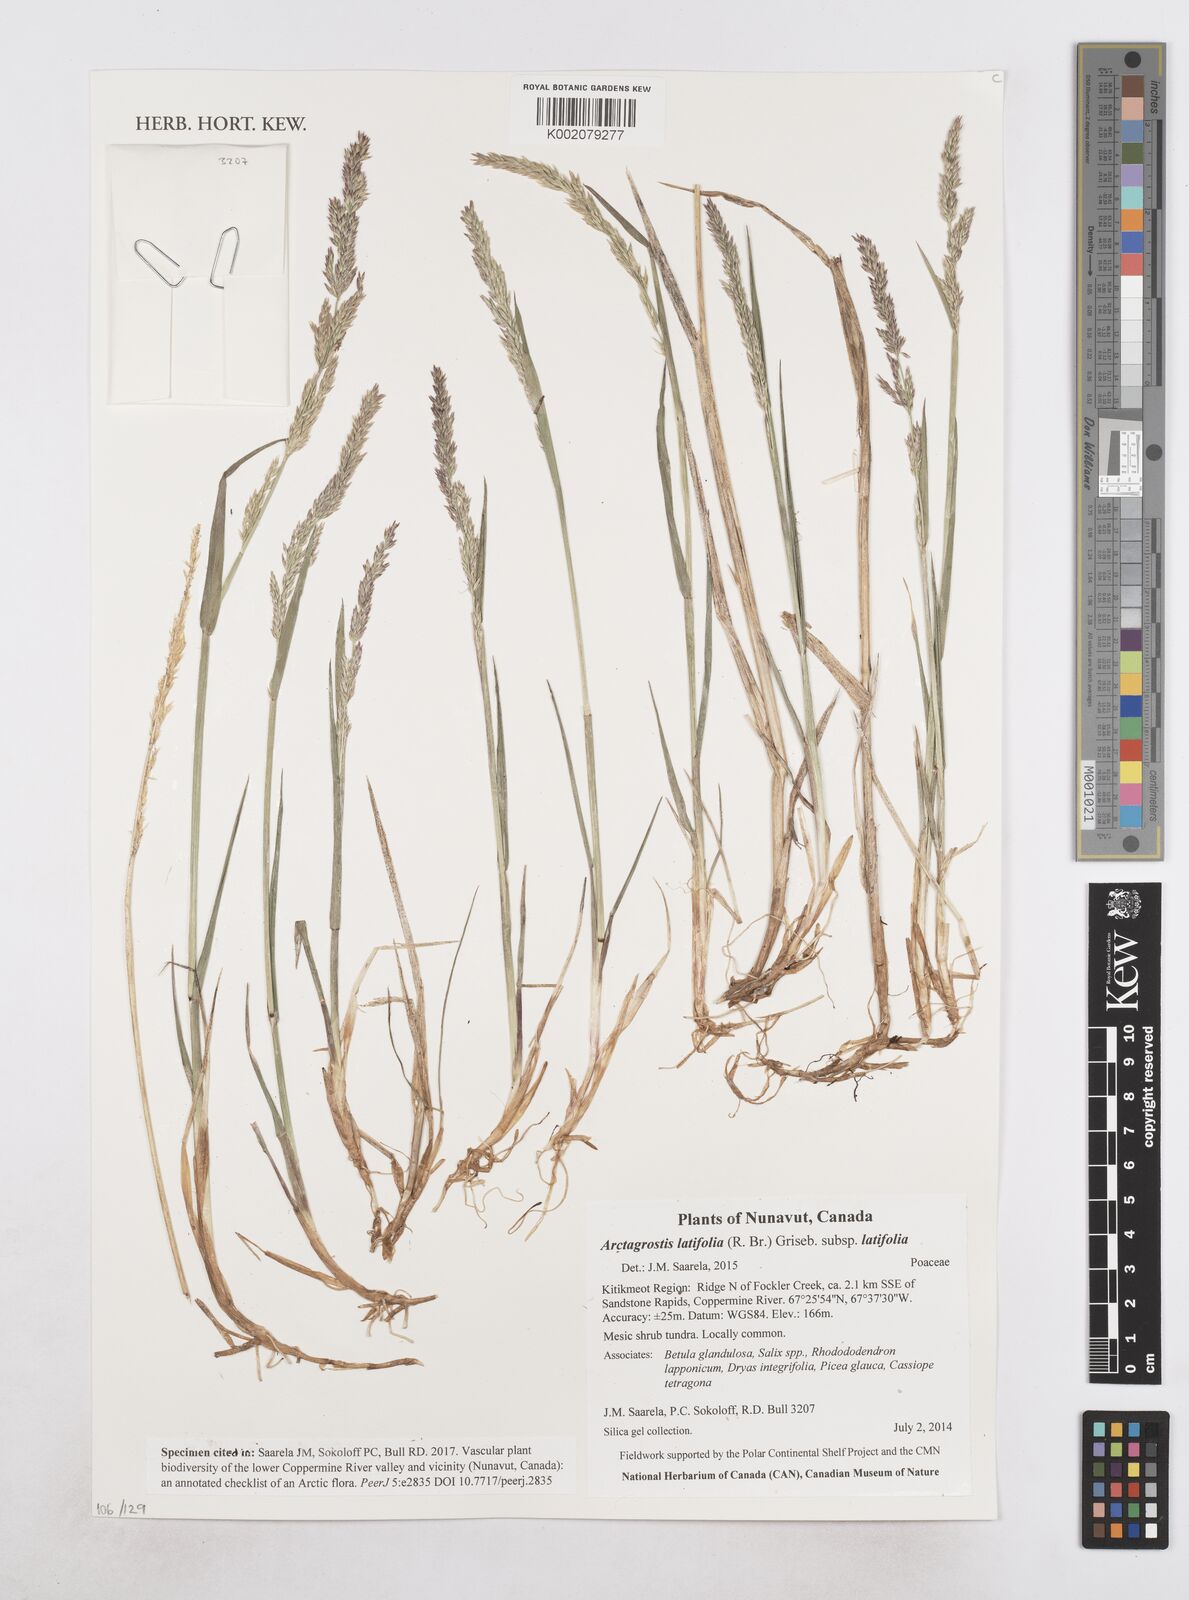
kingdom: Plantae
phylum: Tracheophyta
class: Liliopsida
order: Poales
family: Poaceae
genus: Arctagrostis
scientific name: Arctagrostis latifolia
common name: Arctic grass
